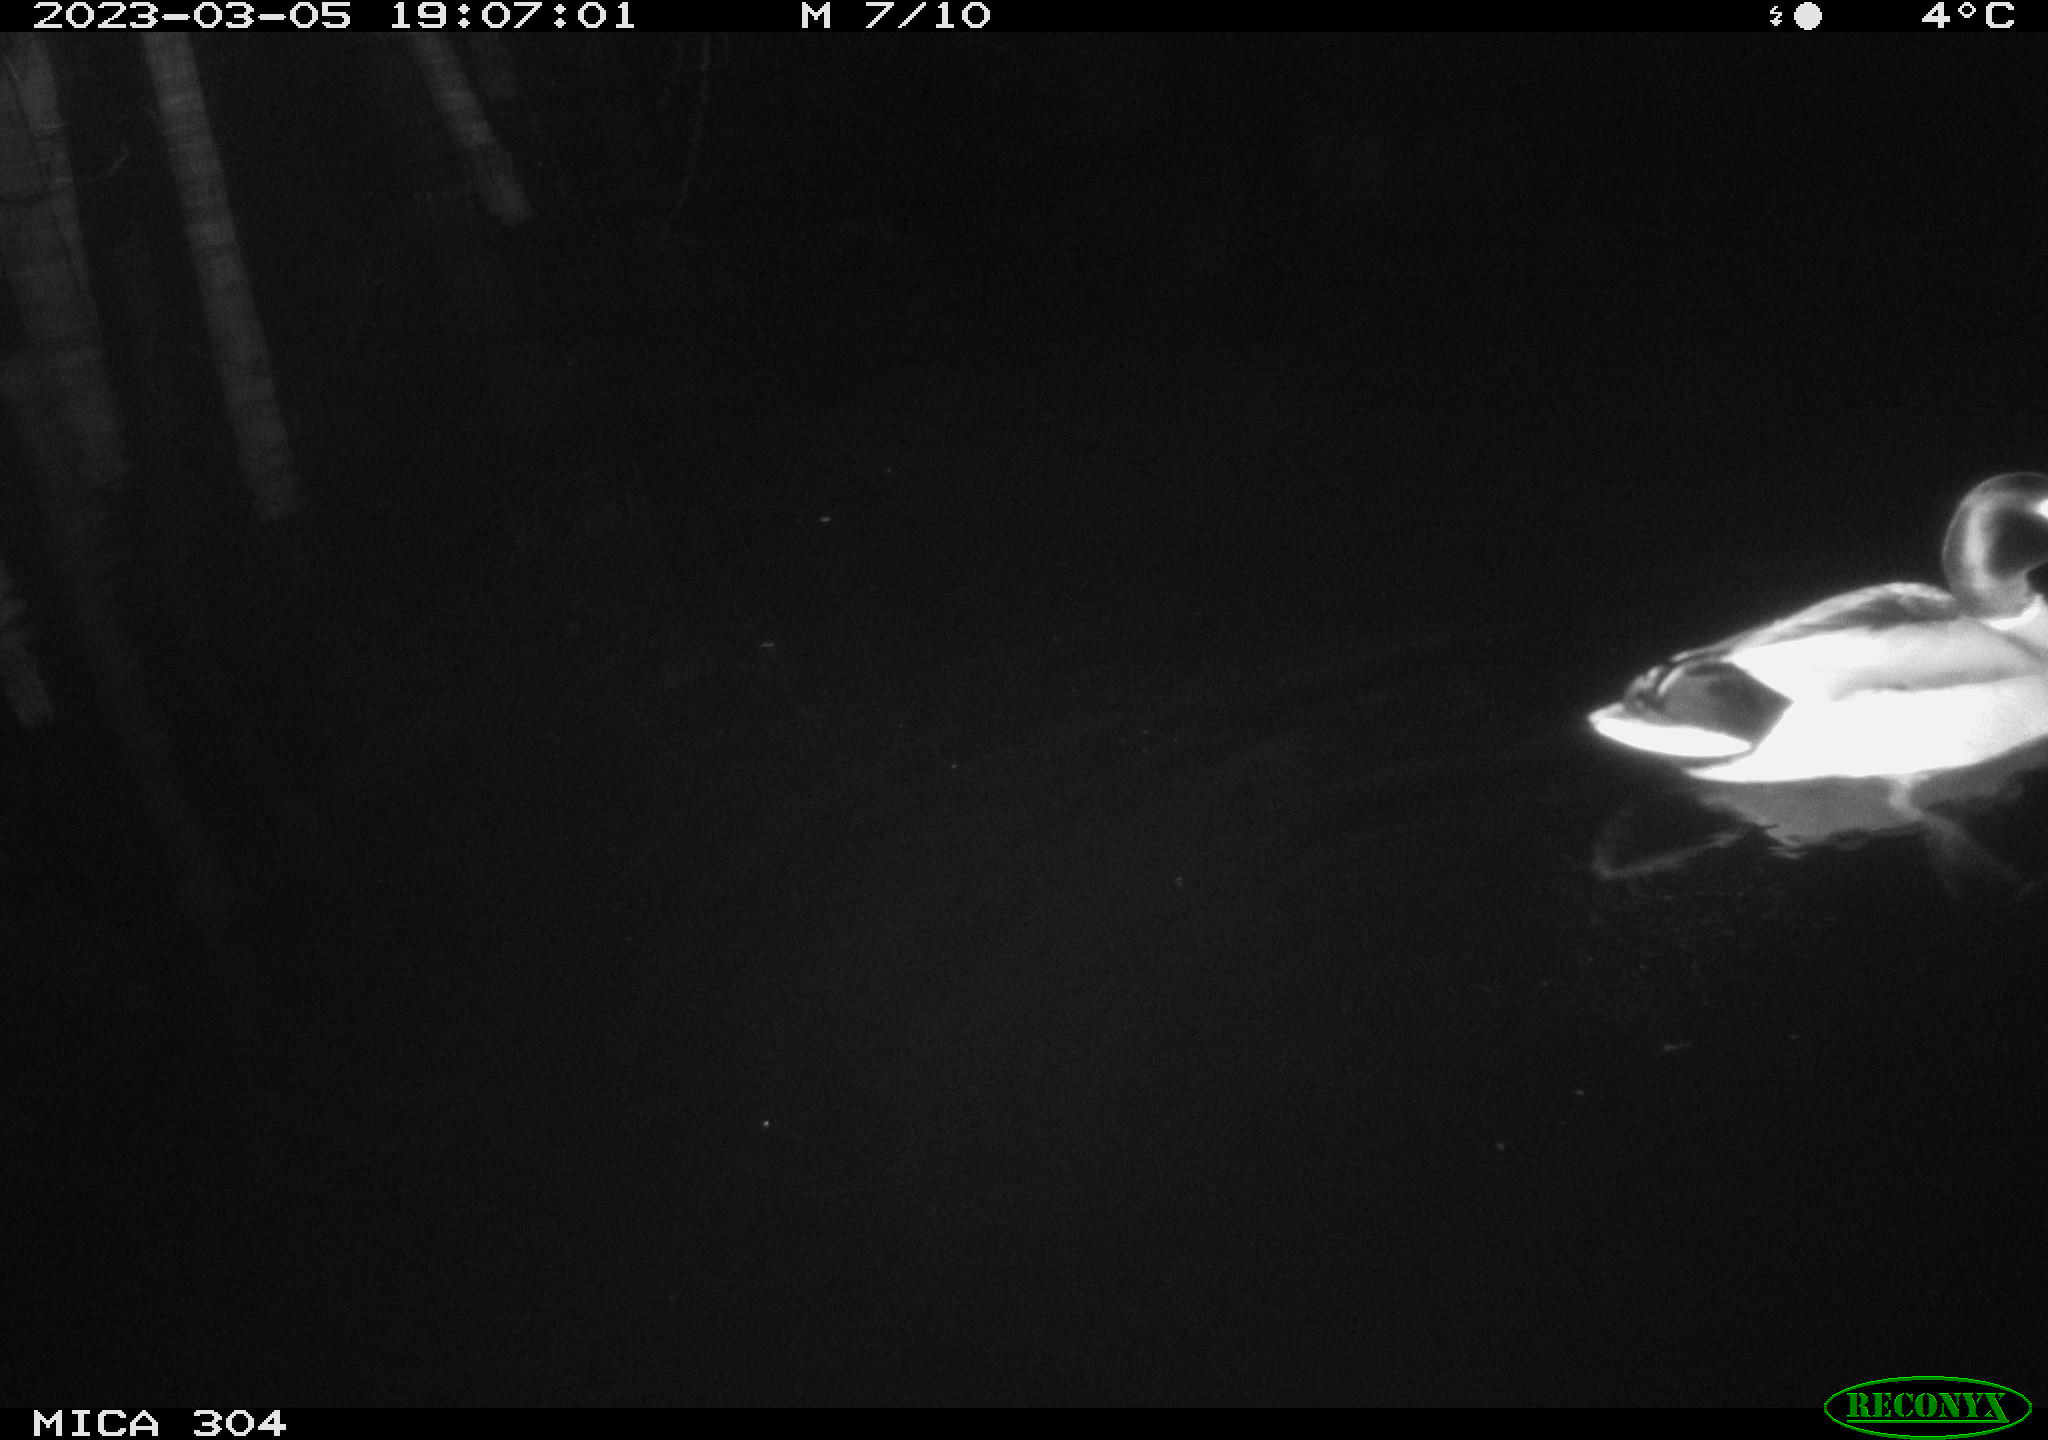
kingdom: Animalia
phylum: Chordata
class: Aves
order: Anseriformes
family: Anatidae
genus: Anas
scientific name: Anas
